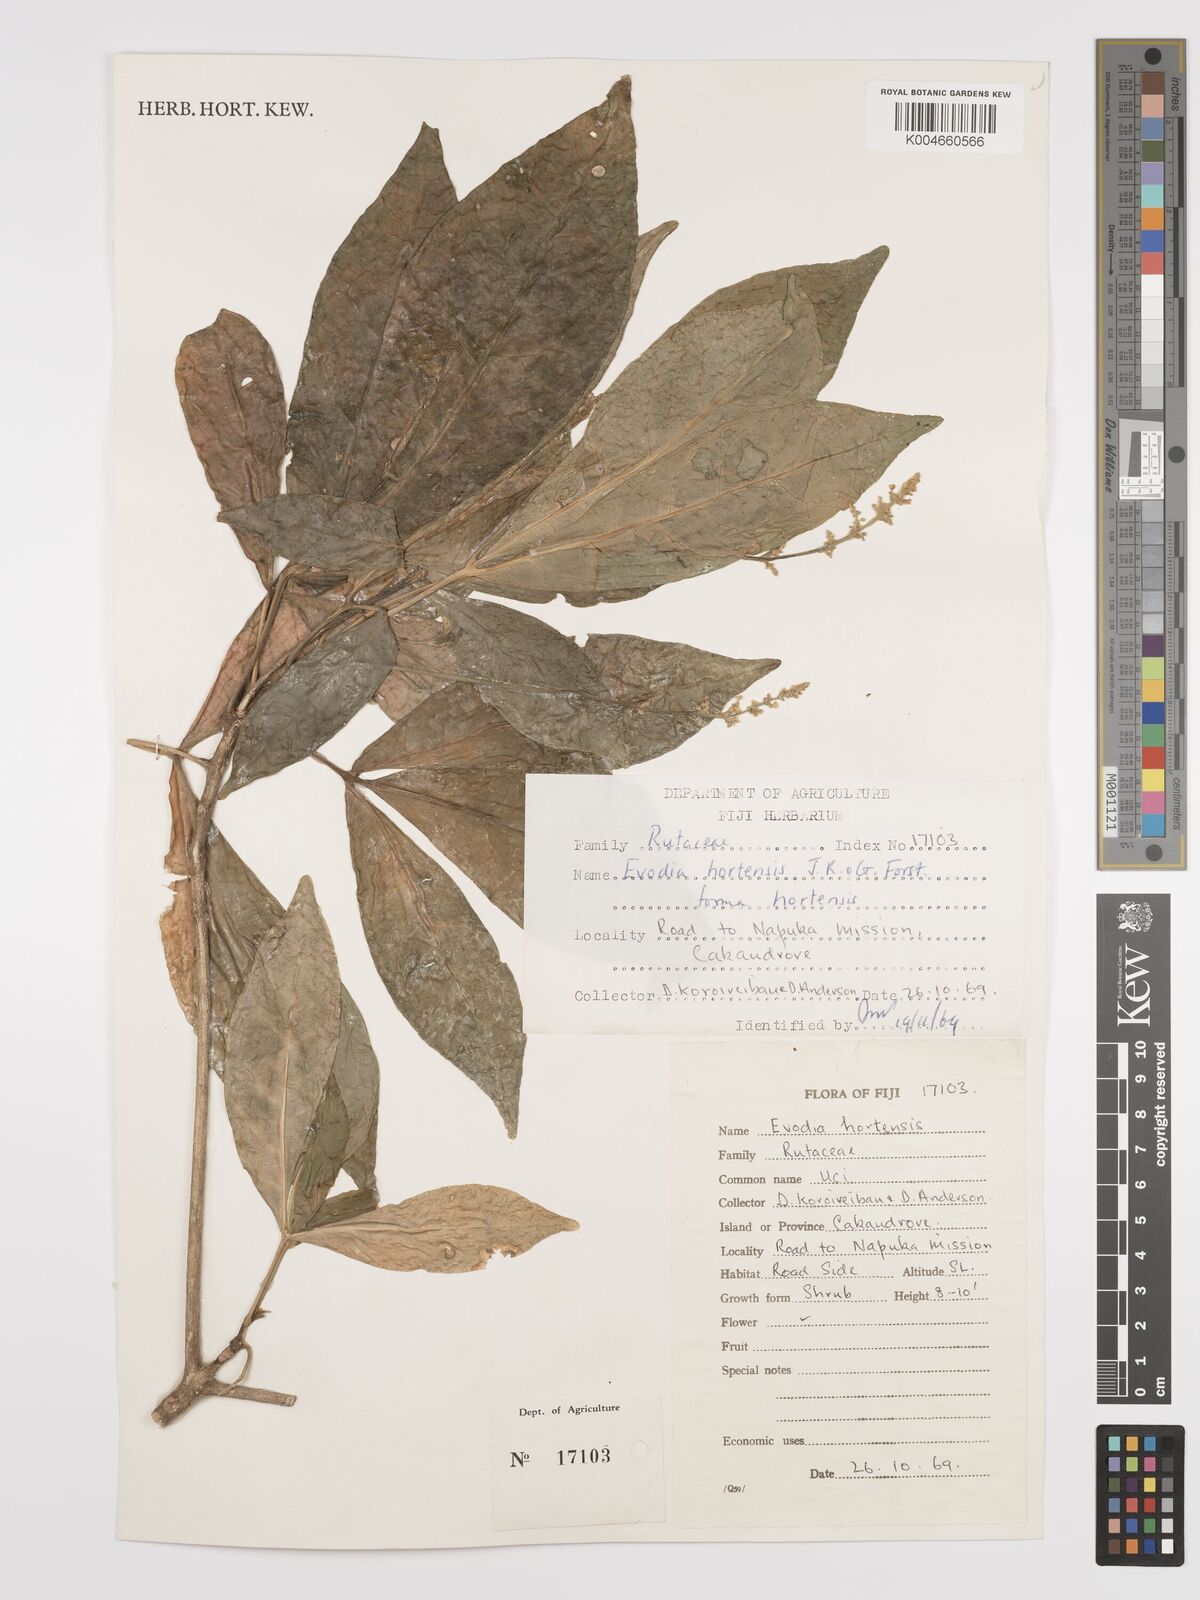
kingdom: Plantae
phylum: Tracheophyta
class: Magnoliopsida
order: Sapindales
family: Rutaceae
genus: Euodia
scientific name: Euodia hortensis
